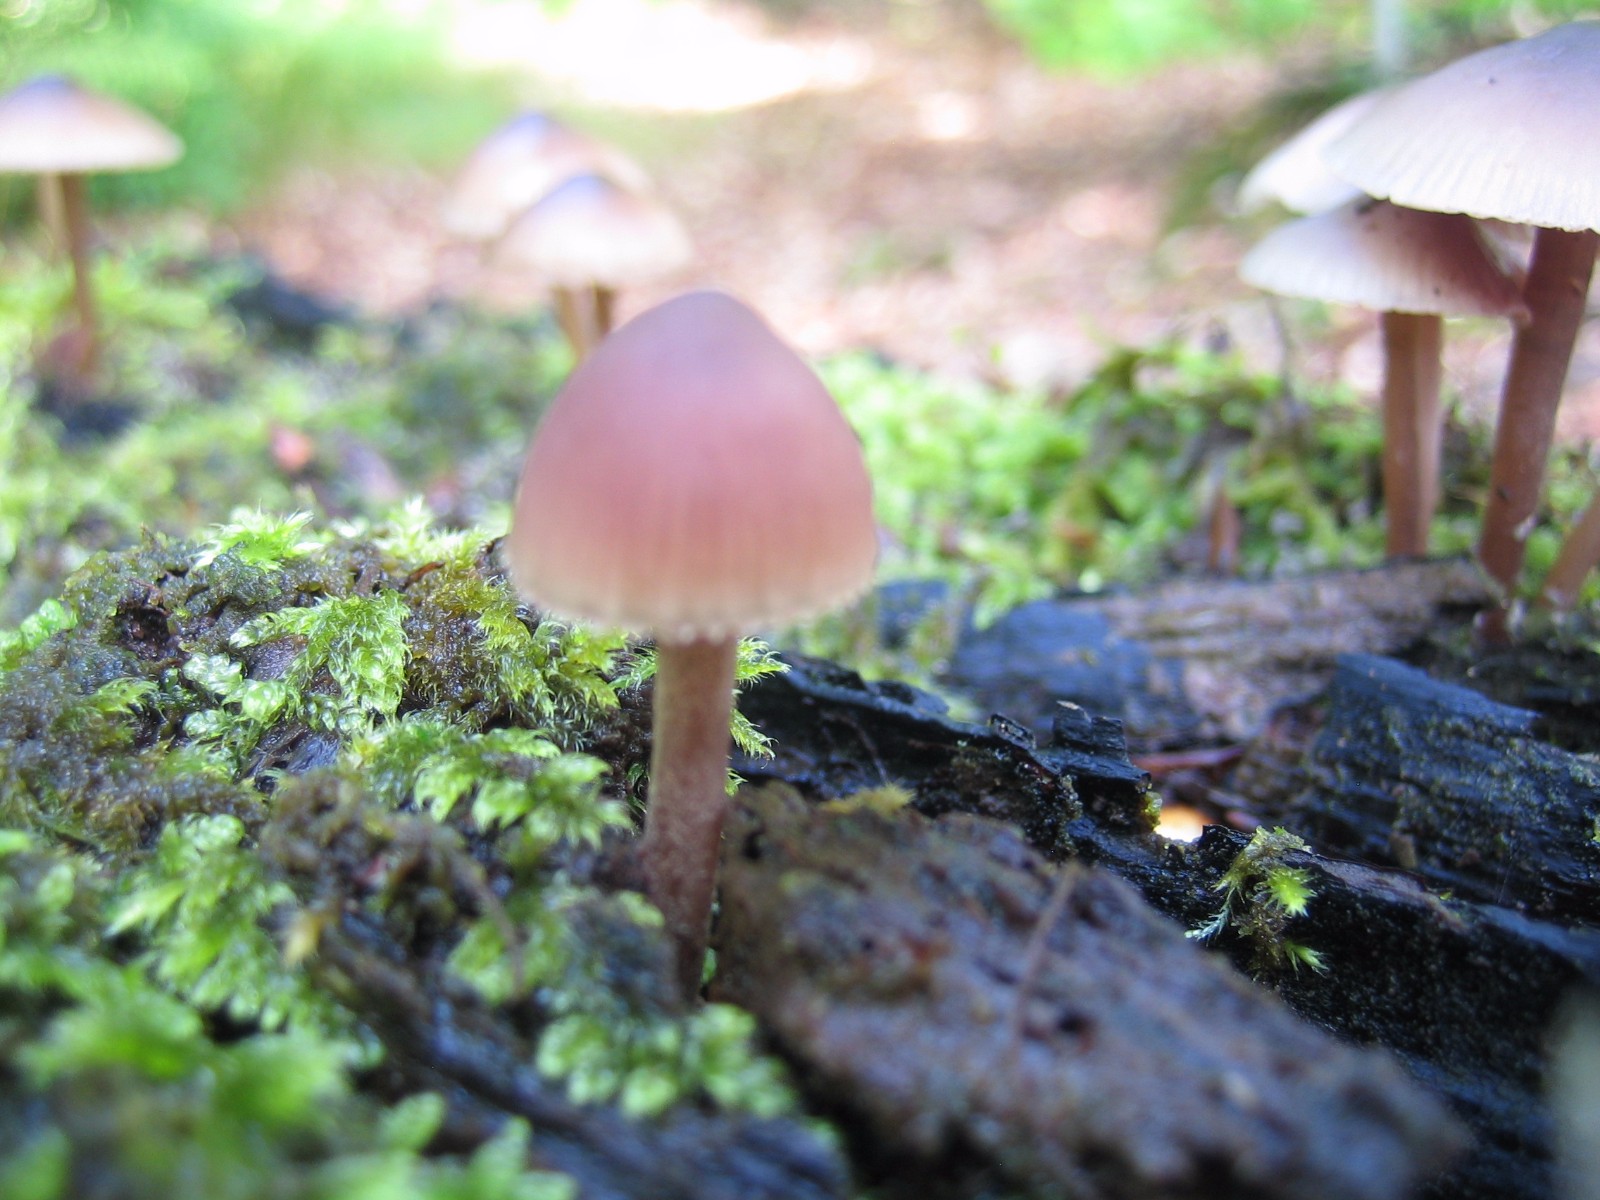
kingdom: Fungi
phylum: Basidiomycota
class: Agaricomycetes
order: Agaricales
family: Mycenaceae
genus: Mycena
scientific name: Mycena haematopus
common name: blødende huesvamp
